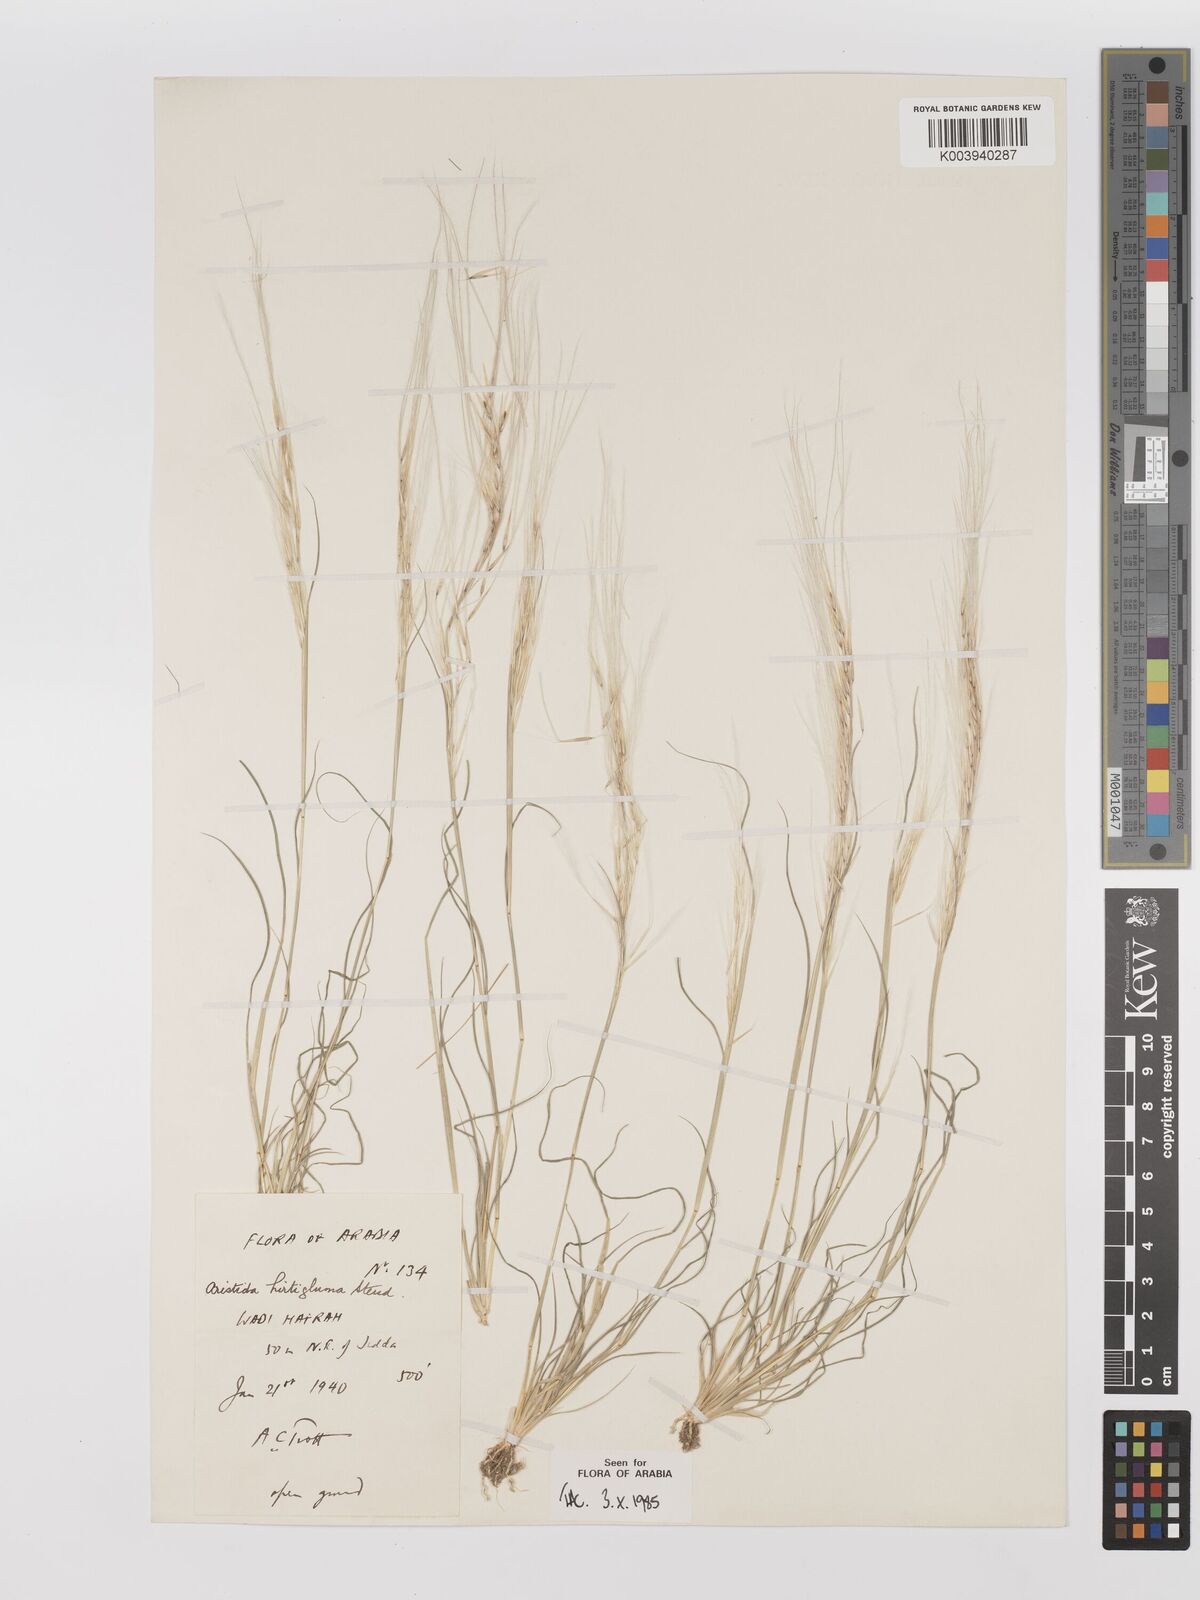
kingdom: Plantae
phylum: Tracheophyta
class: Liliopsida
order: Poales
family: Poaceae
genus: Stipagrostis
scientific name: Stipagrostis hirtigluma
